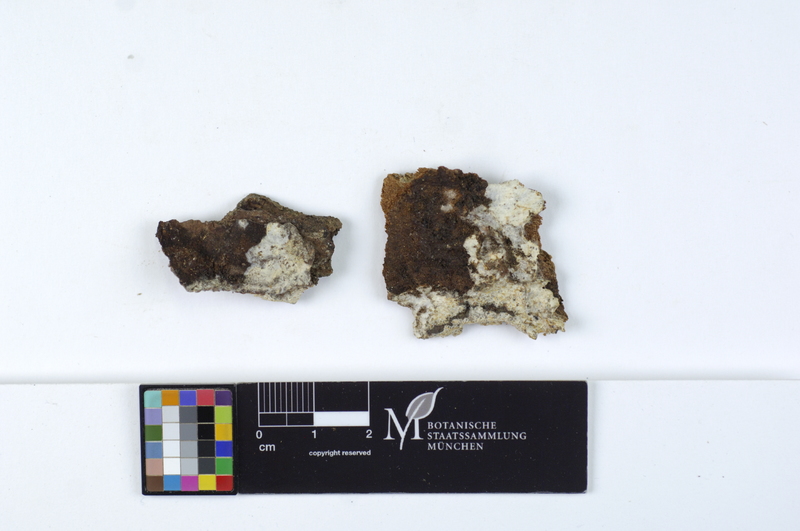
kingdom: Plantae
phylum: Tracheophyta
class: Pinopsida
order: Pinales
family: Pinaceae
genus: Picea
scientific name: Picea
